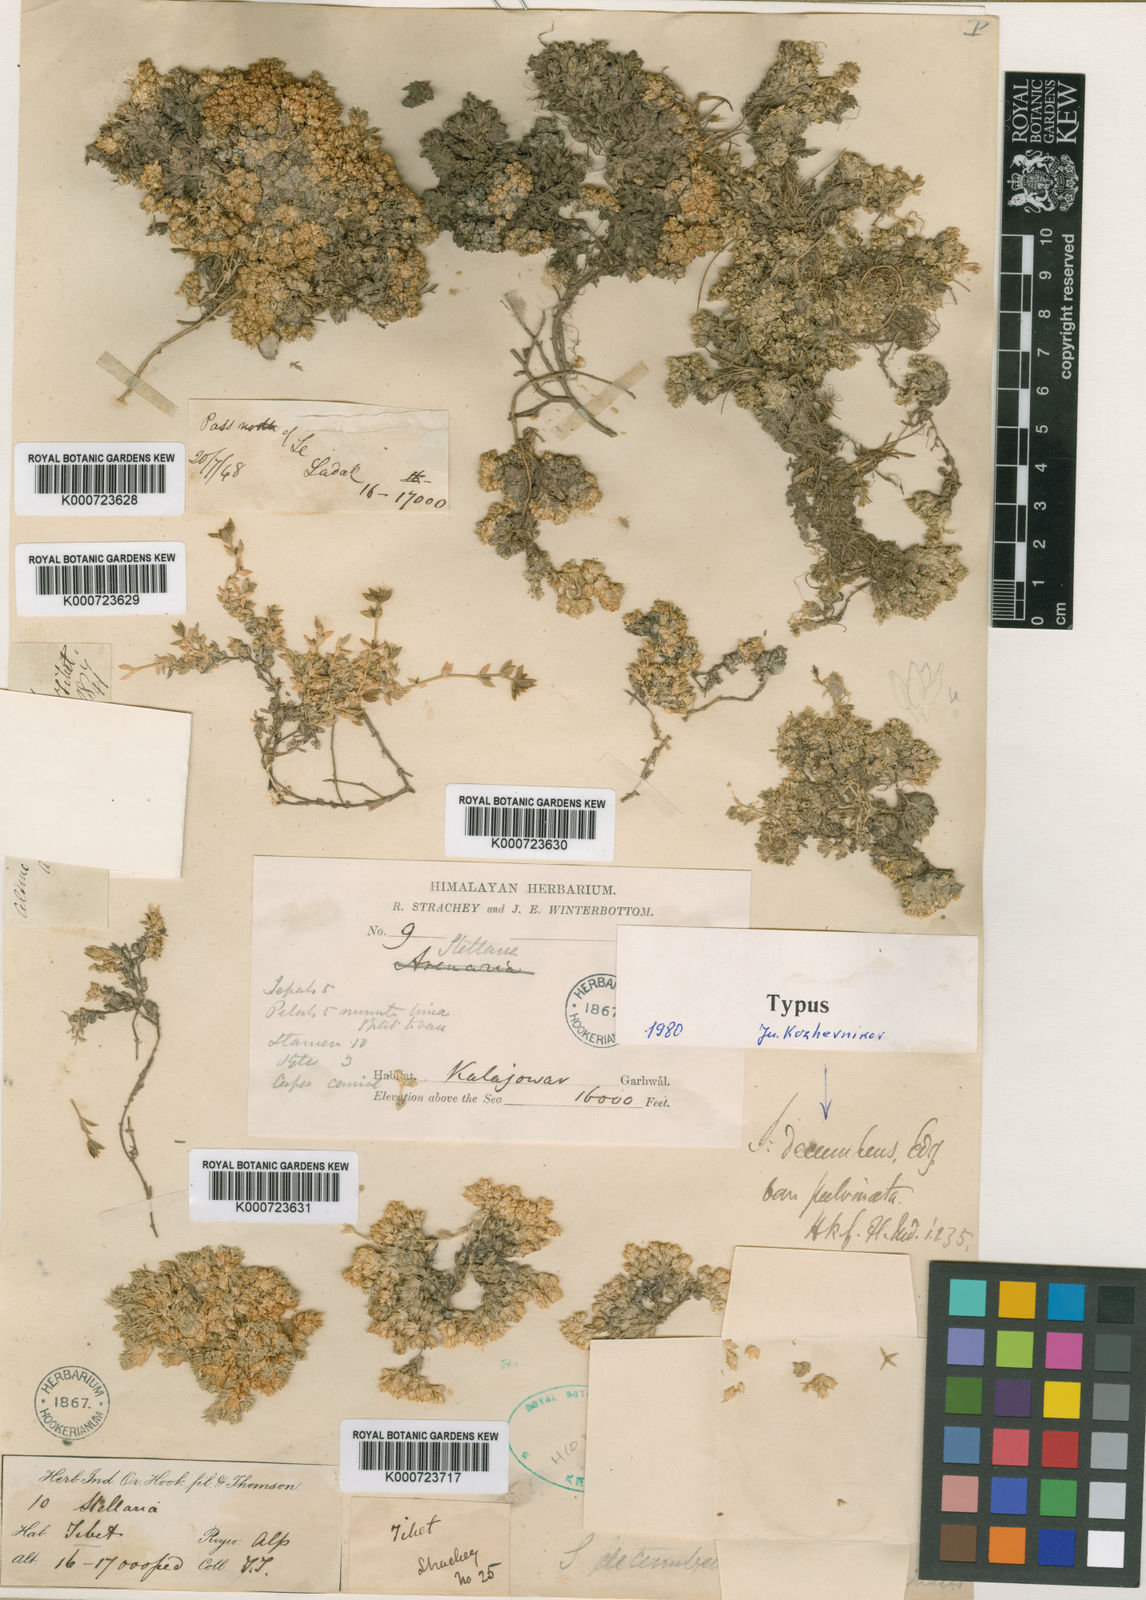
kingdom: Plantae
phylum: Tracheophyta
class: Magnoliopsida
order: Caryophyllales
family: Caryophyllaceae
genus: Stellaria
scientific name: Stellaria decumbens
